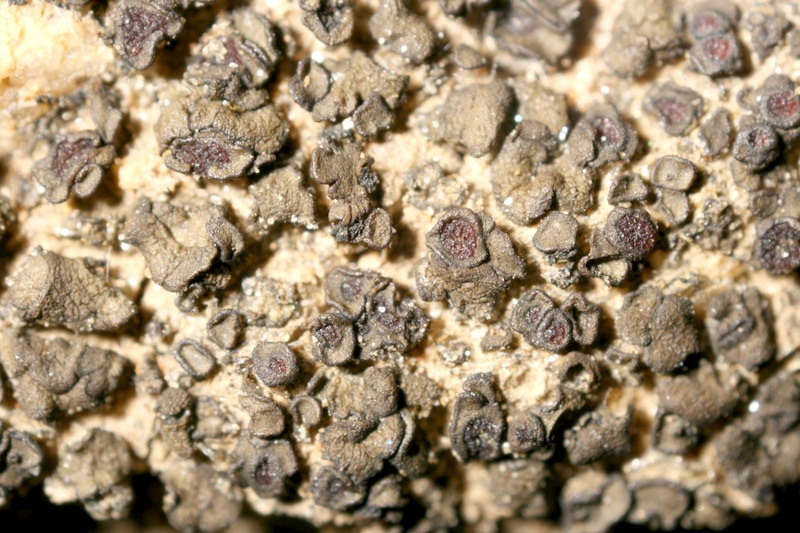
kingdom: Fungi
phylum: Ascomycota
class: Lichinomycetes
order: Lichinales
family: Peltulaceae
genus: Peltula
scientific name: Peltula hassei
